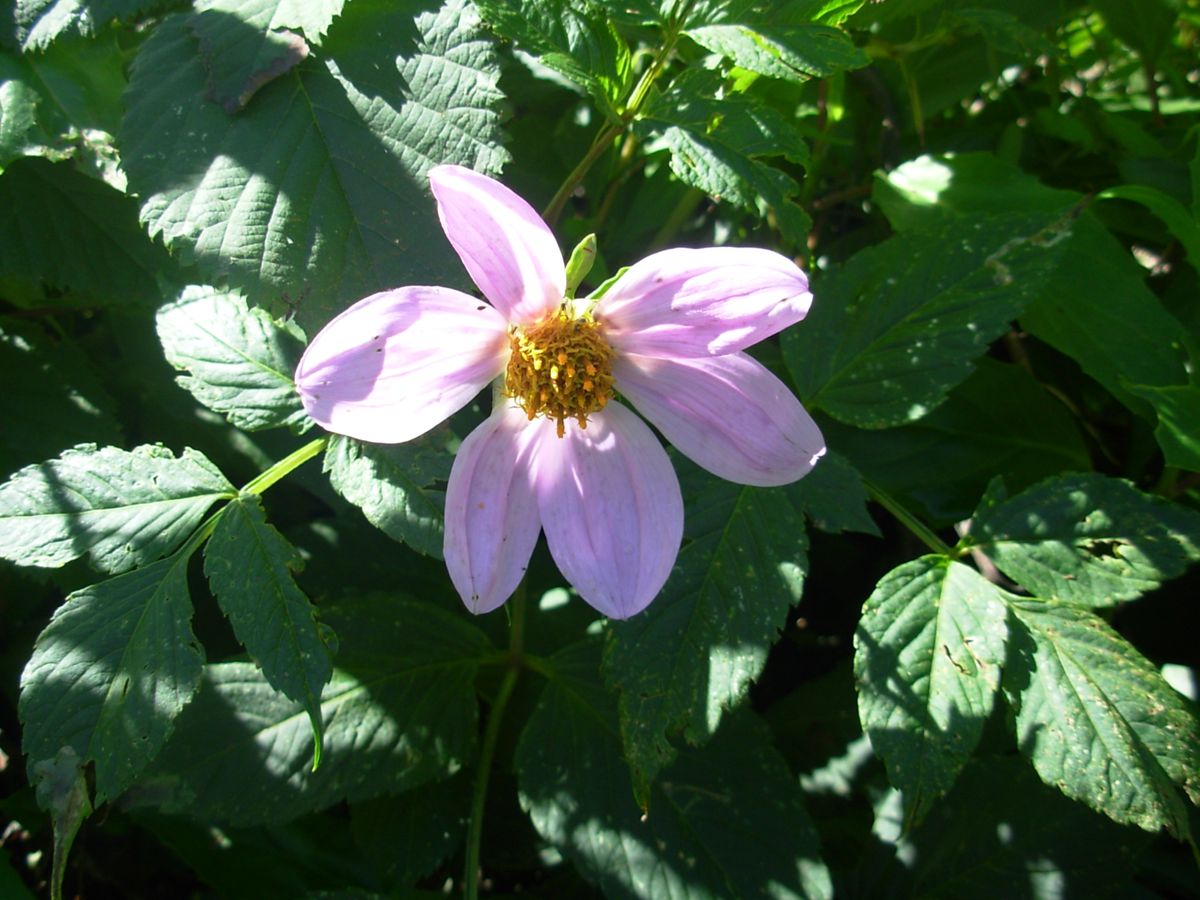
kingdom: Plantae
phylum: Tracheophyta
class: Magnoliopsida
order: Asterales
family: Asteraceae
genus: Dahlia
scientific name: Dahlia imperialis
